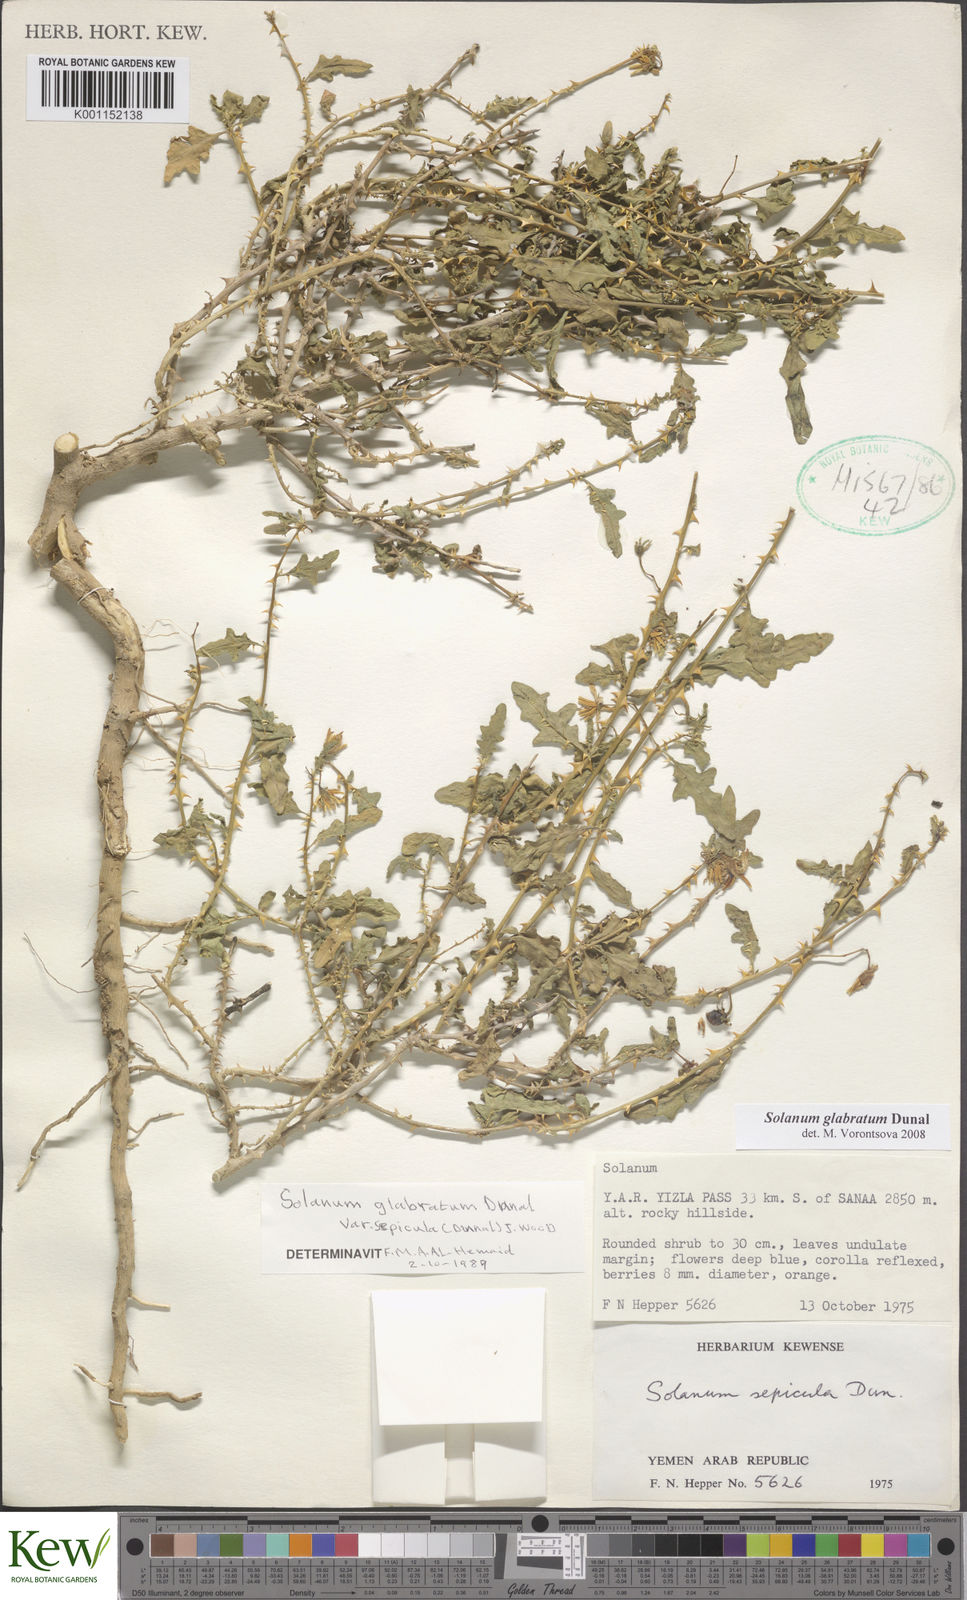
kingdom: Plantae
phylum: Tracheophyta
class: Magnoliopsida
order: Solanales
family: Solanaceae
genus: Solanum
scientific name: Solanum glabratum
